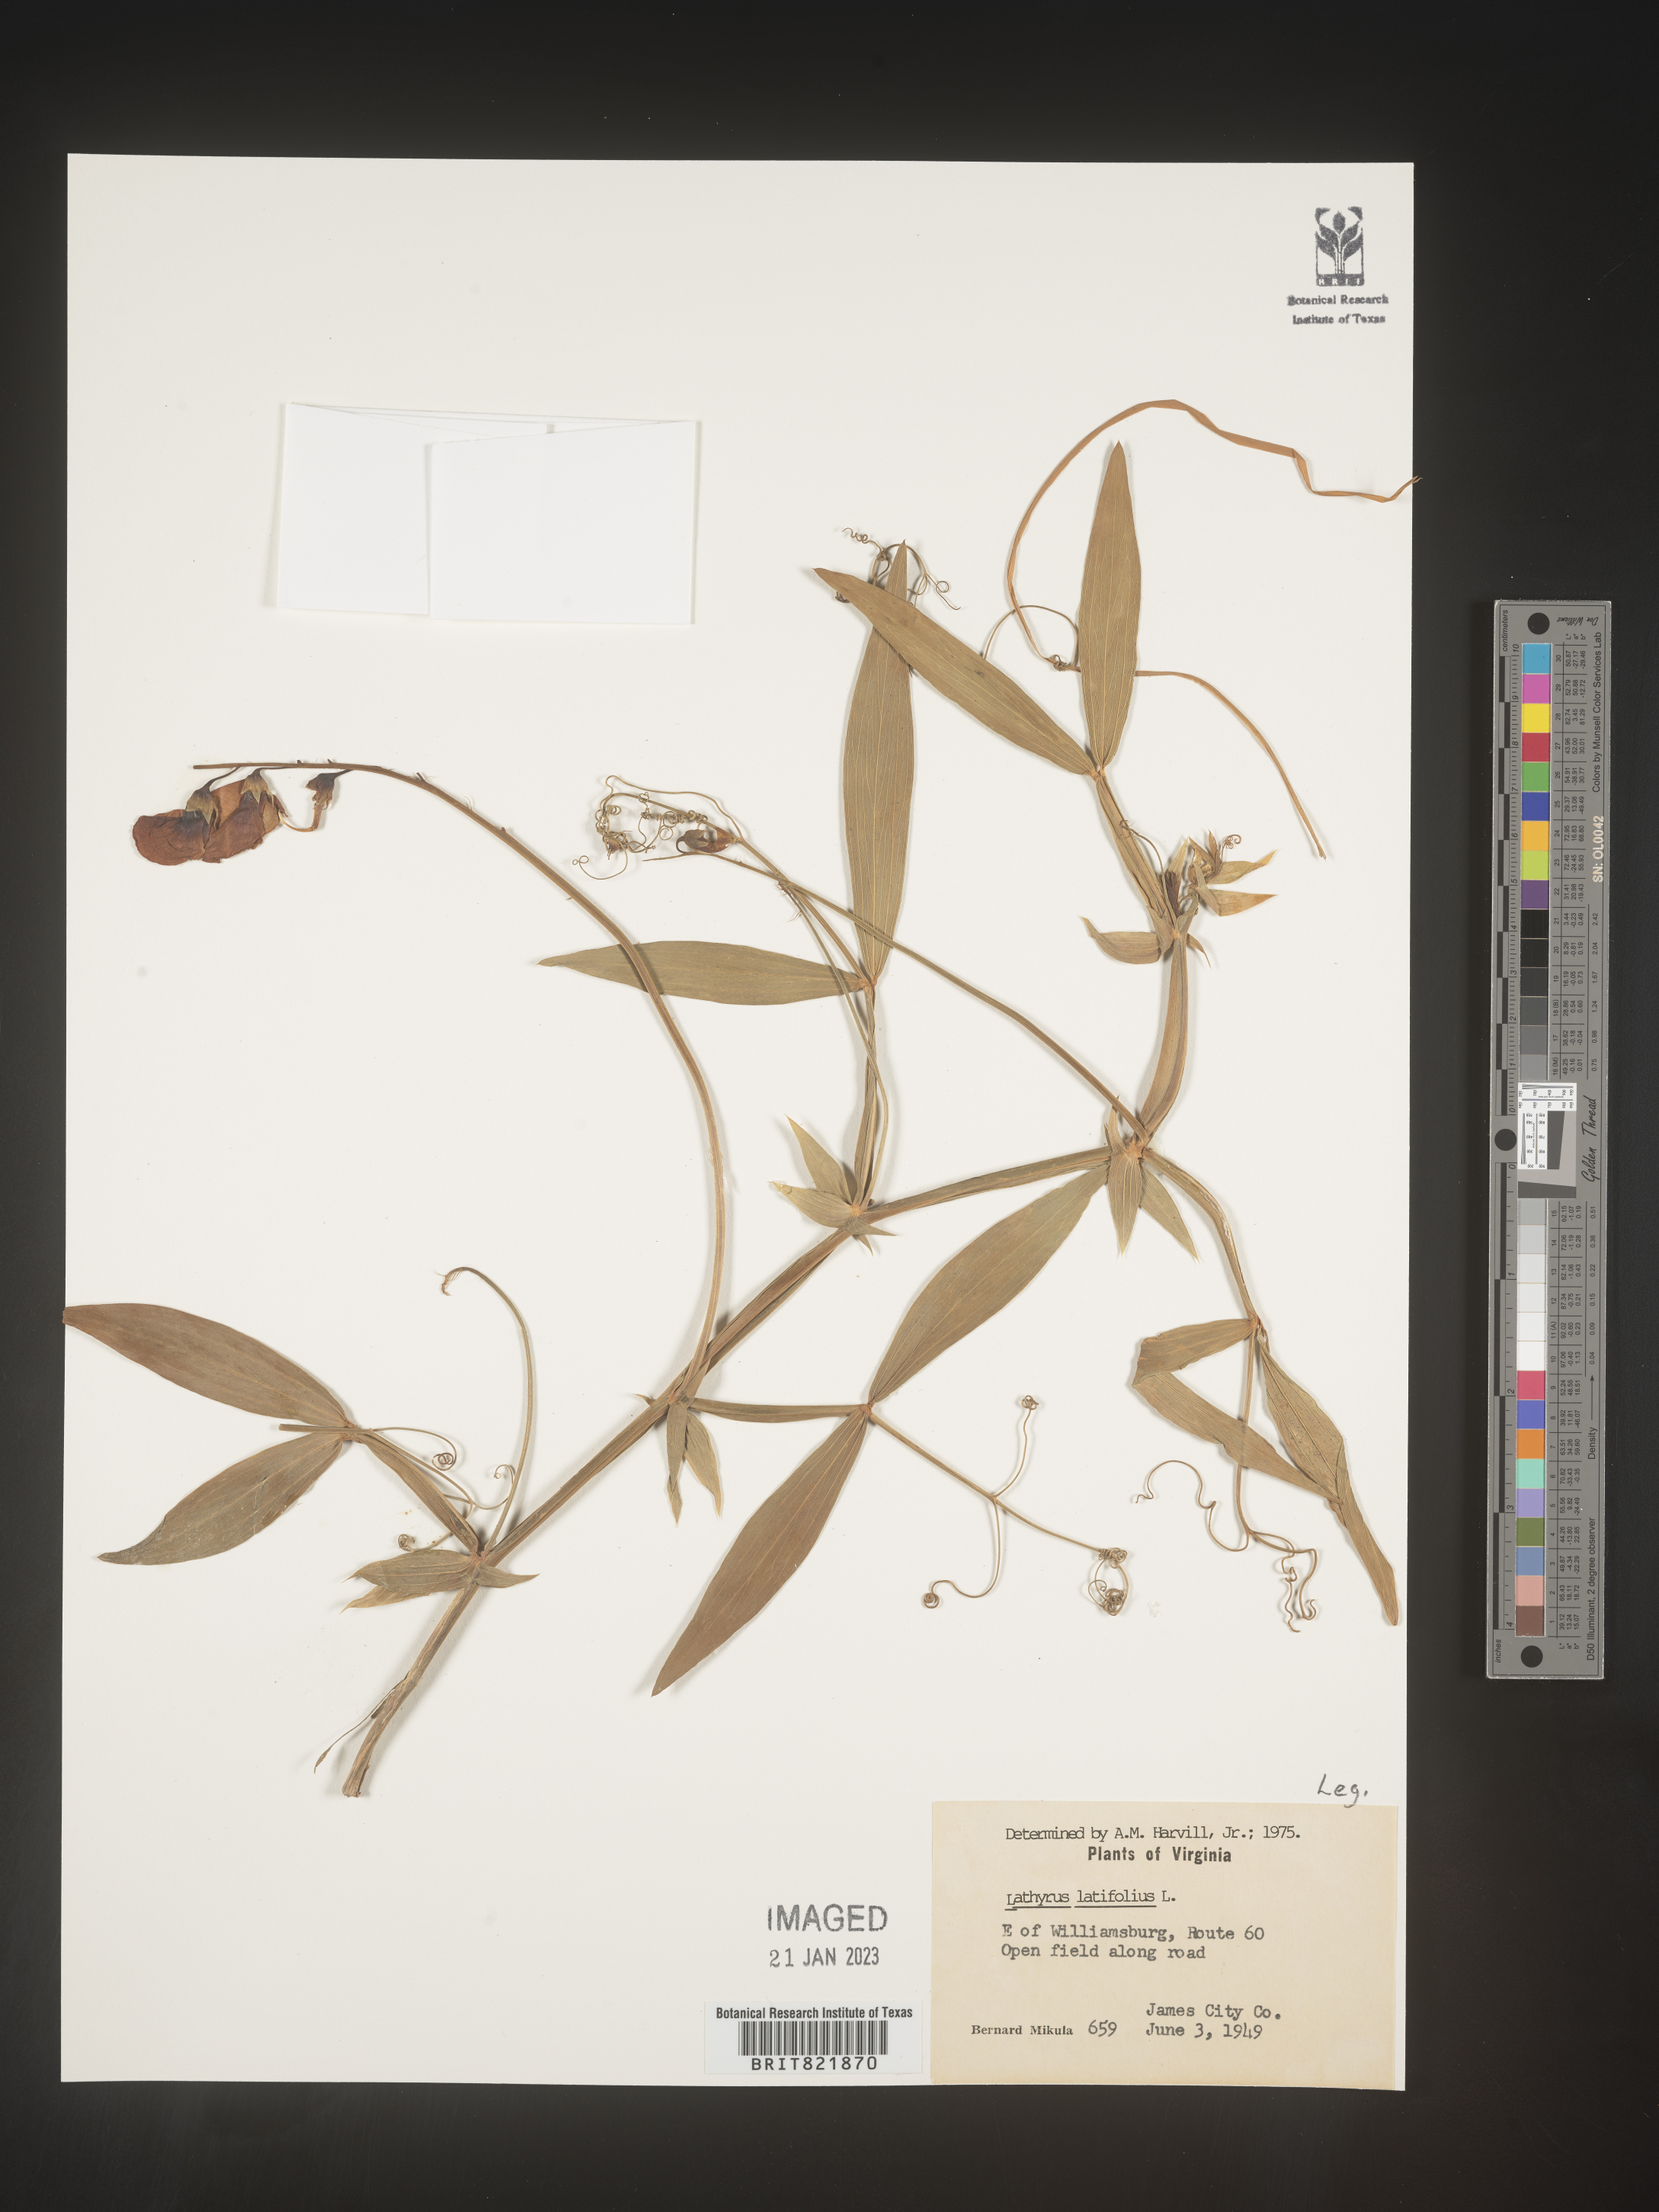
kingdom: Plantae
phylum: Tracheophyta
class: Magnoliopsida
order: Fabales
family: Fabaceae
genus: Lathyrus
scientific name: Lathyrus latifolius
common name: Perennial pea
